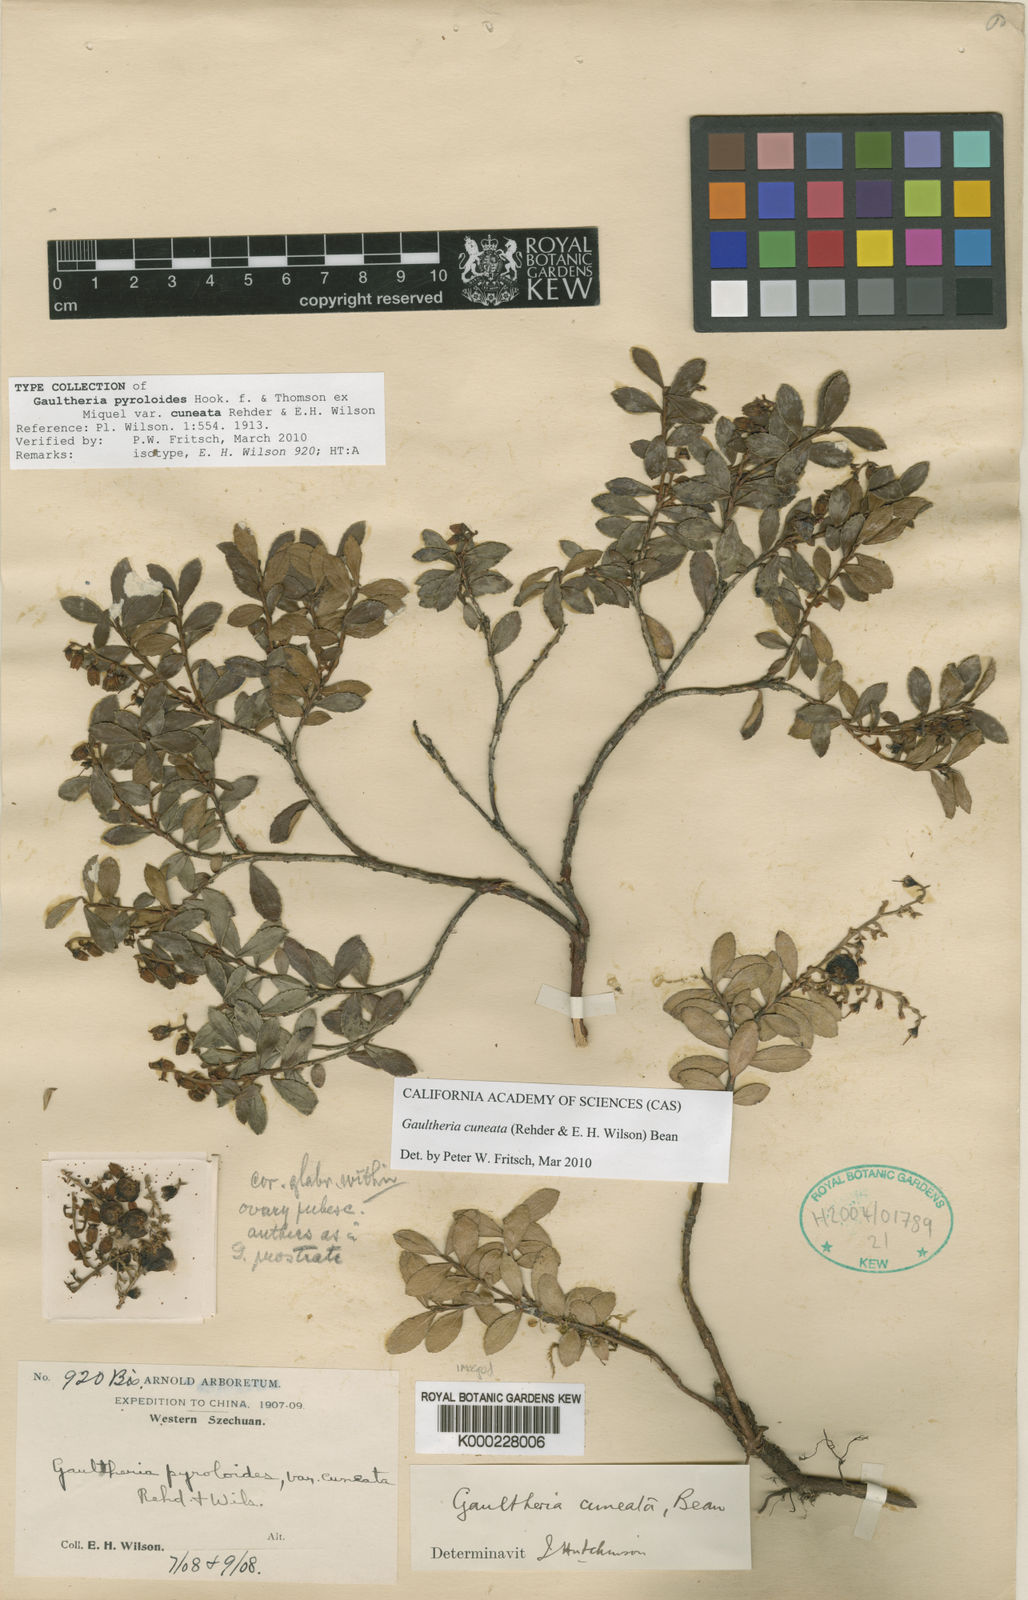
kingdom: Plantae
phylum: Tracheophyta
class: Magnoliopsida
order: Ericales
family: Ericaceae
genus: Gaultheria
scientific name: Gaultheria cuneata
